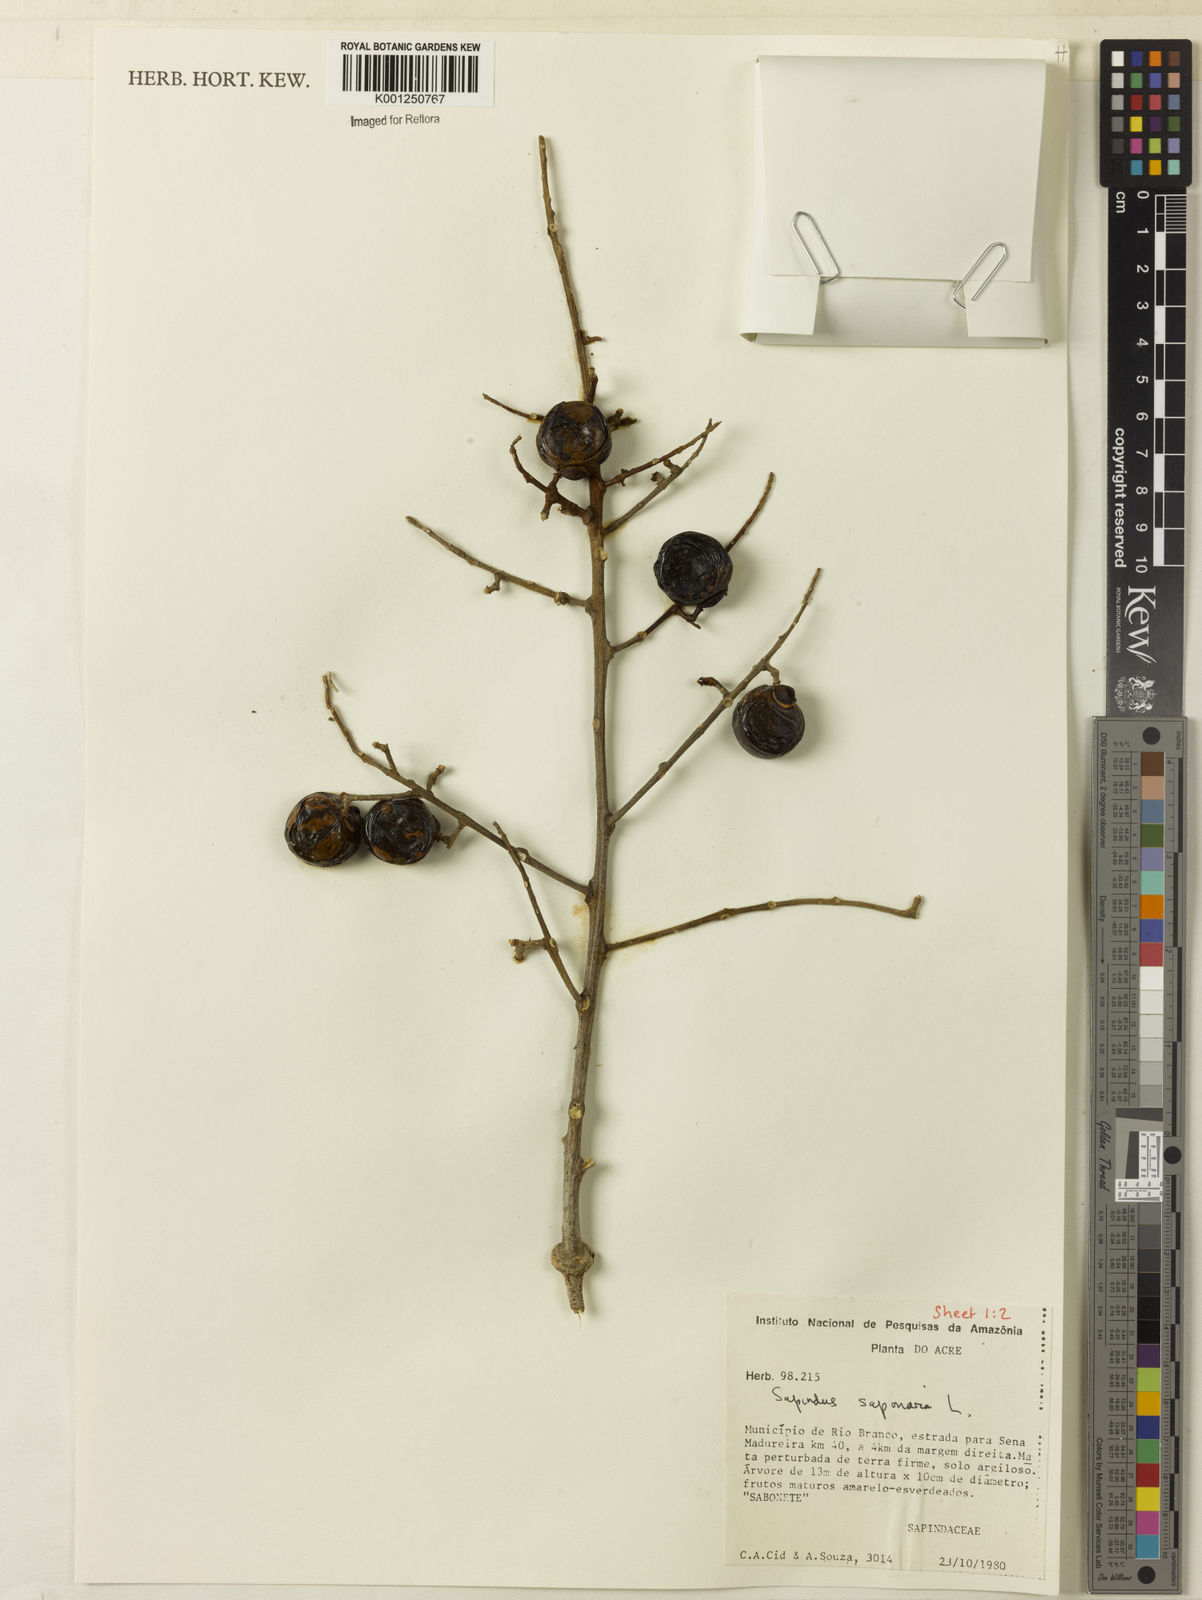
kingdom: Plantae
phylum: Tracheophyta
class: Magnoliopsida
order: Sapindales
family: Sapindaceae
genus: Sapindus
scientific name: Sapindus
